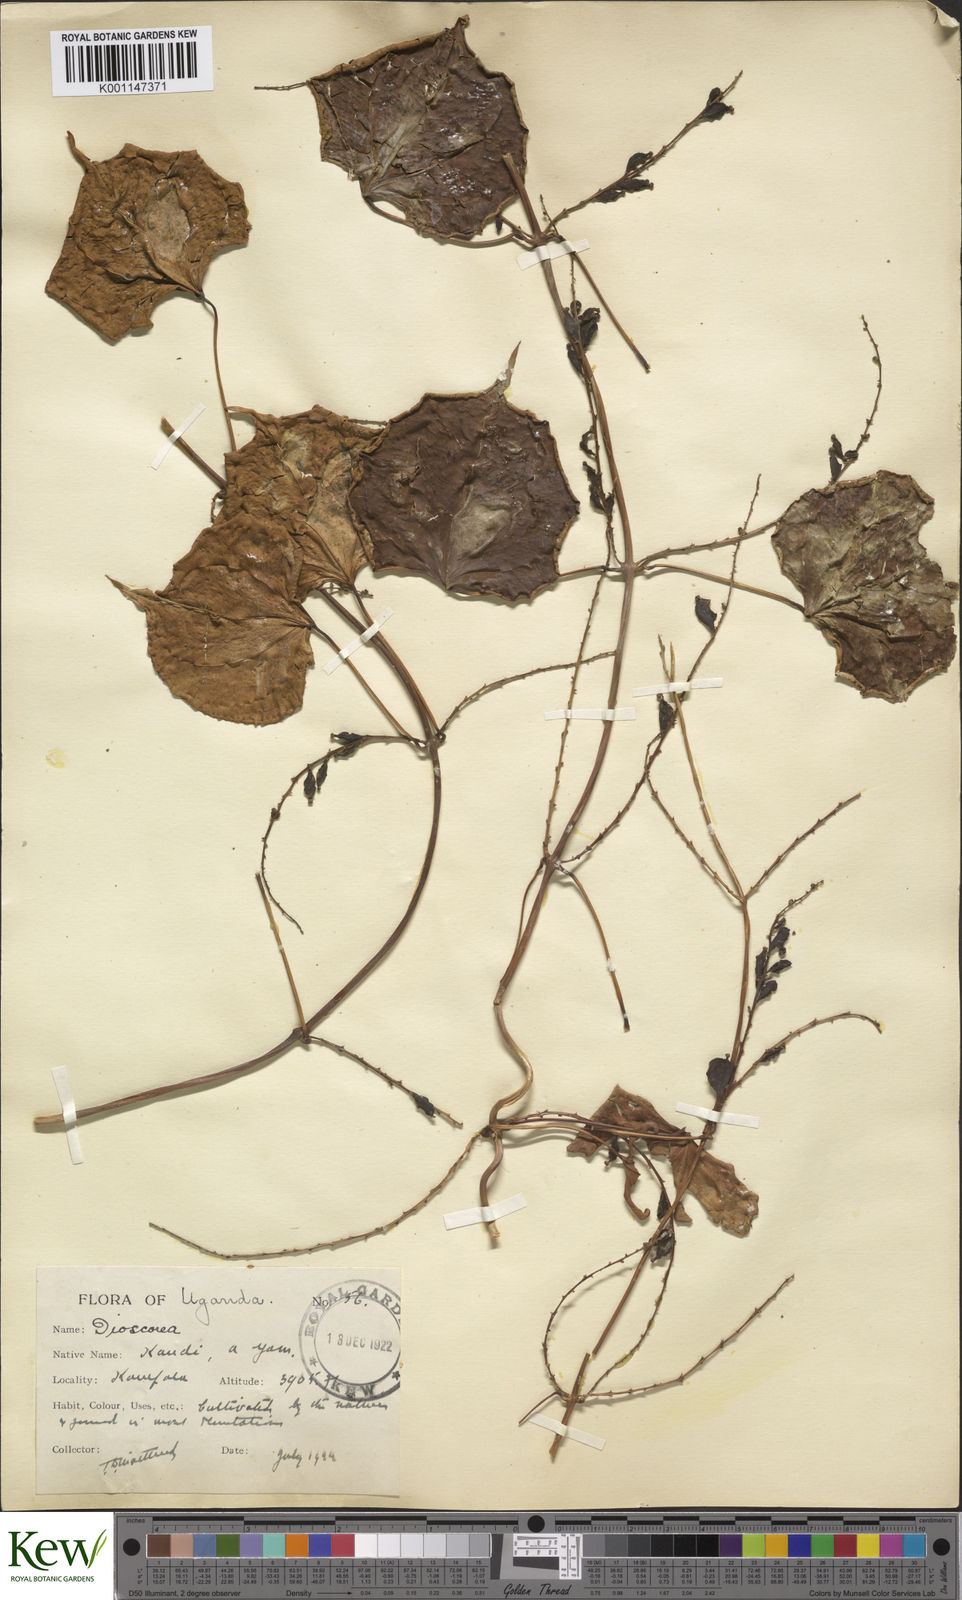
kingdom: Plantae
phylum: Tracheophyta
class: Liliopsida
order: Dioscoreales
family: Dioscoreaceae
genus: Dioscorea
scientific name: Dioscorea cayenensis
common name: Attoto yam
